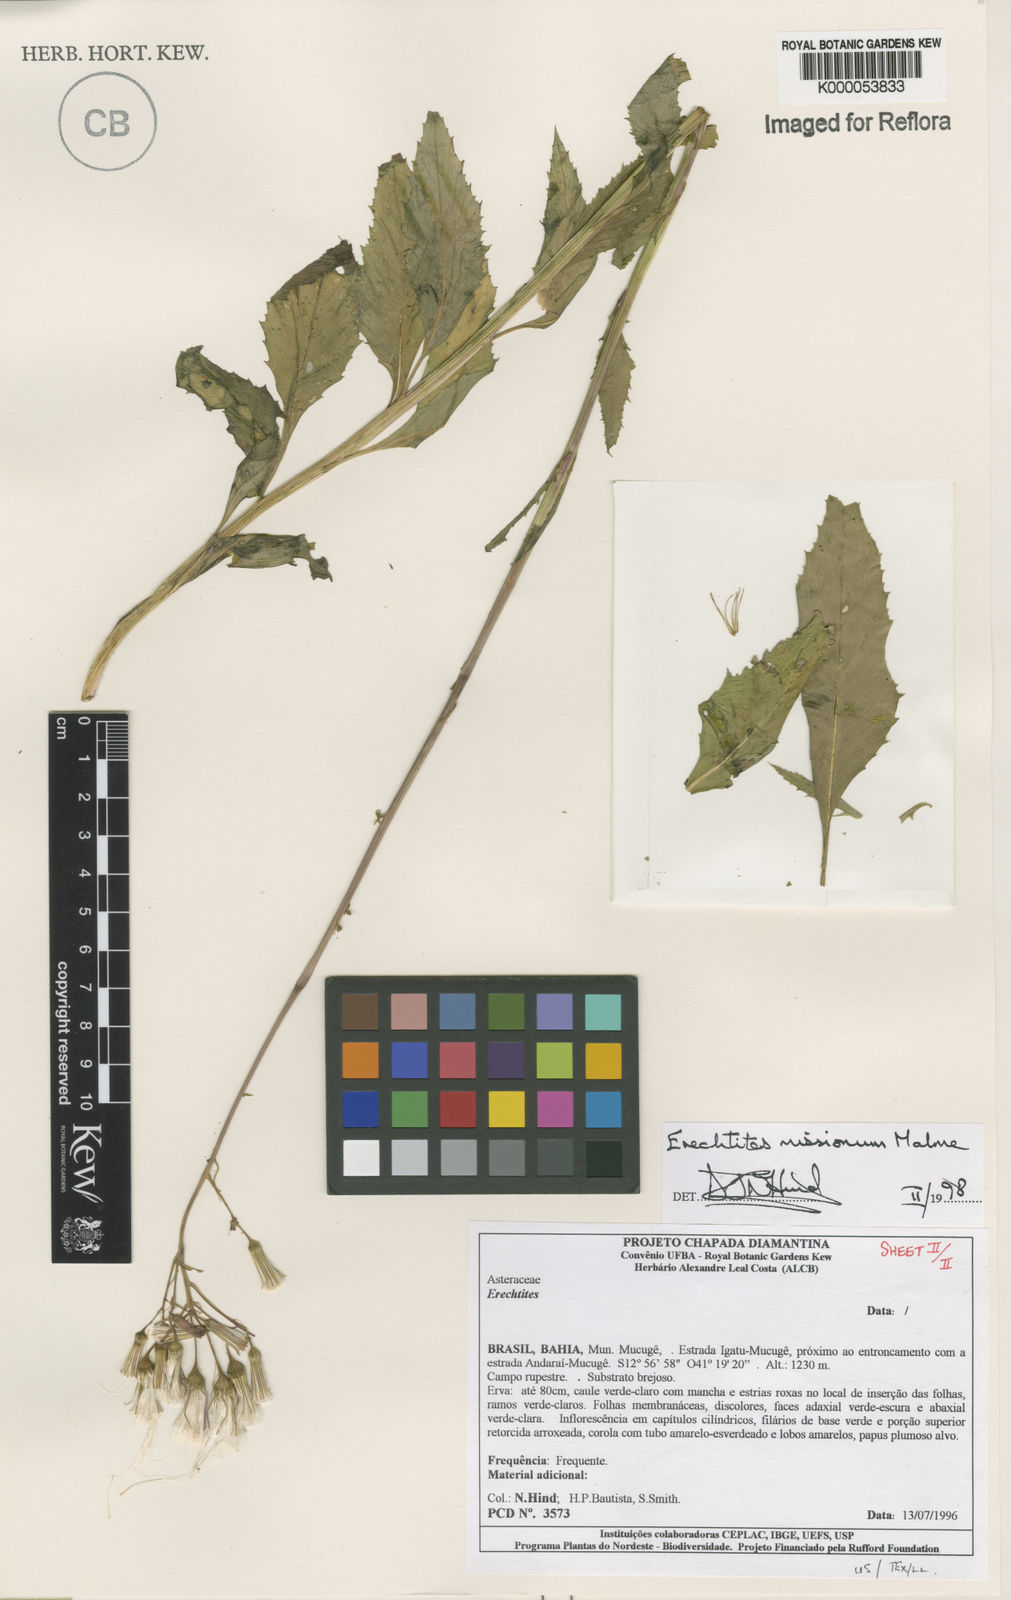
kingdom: Plantae
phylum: Tracheophyta
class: Magnoliopsida
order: Asterales
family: Asteraceae
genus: Erechtites
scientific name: Erechtites missionum
